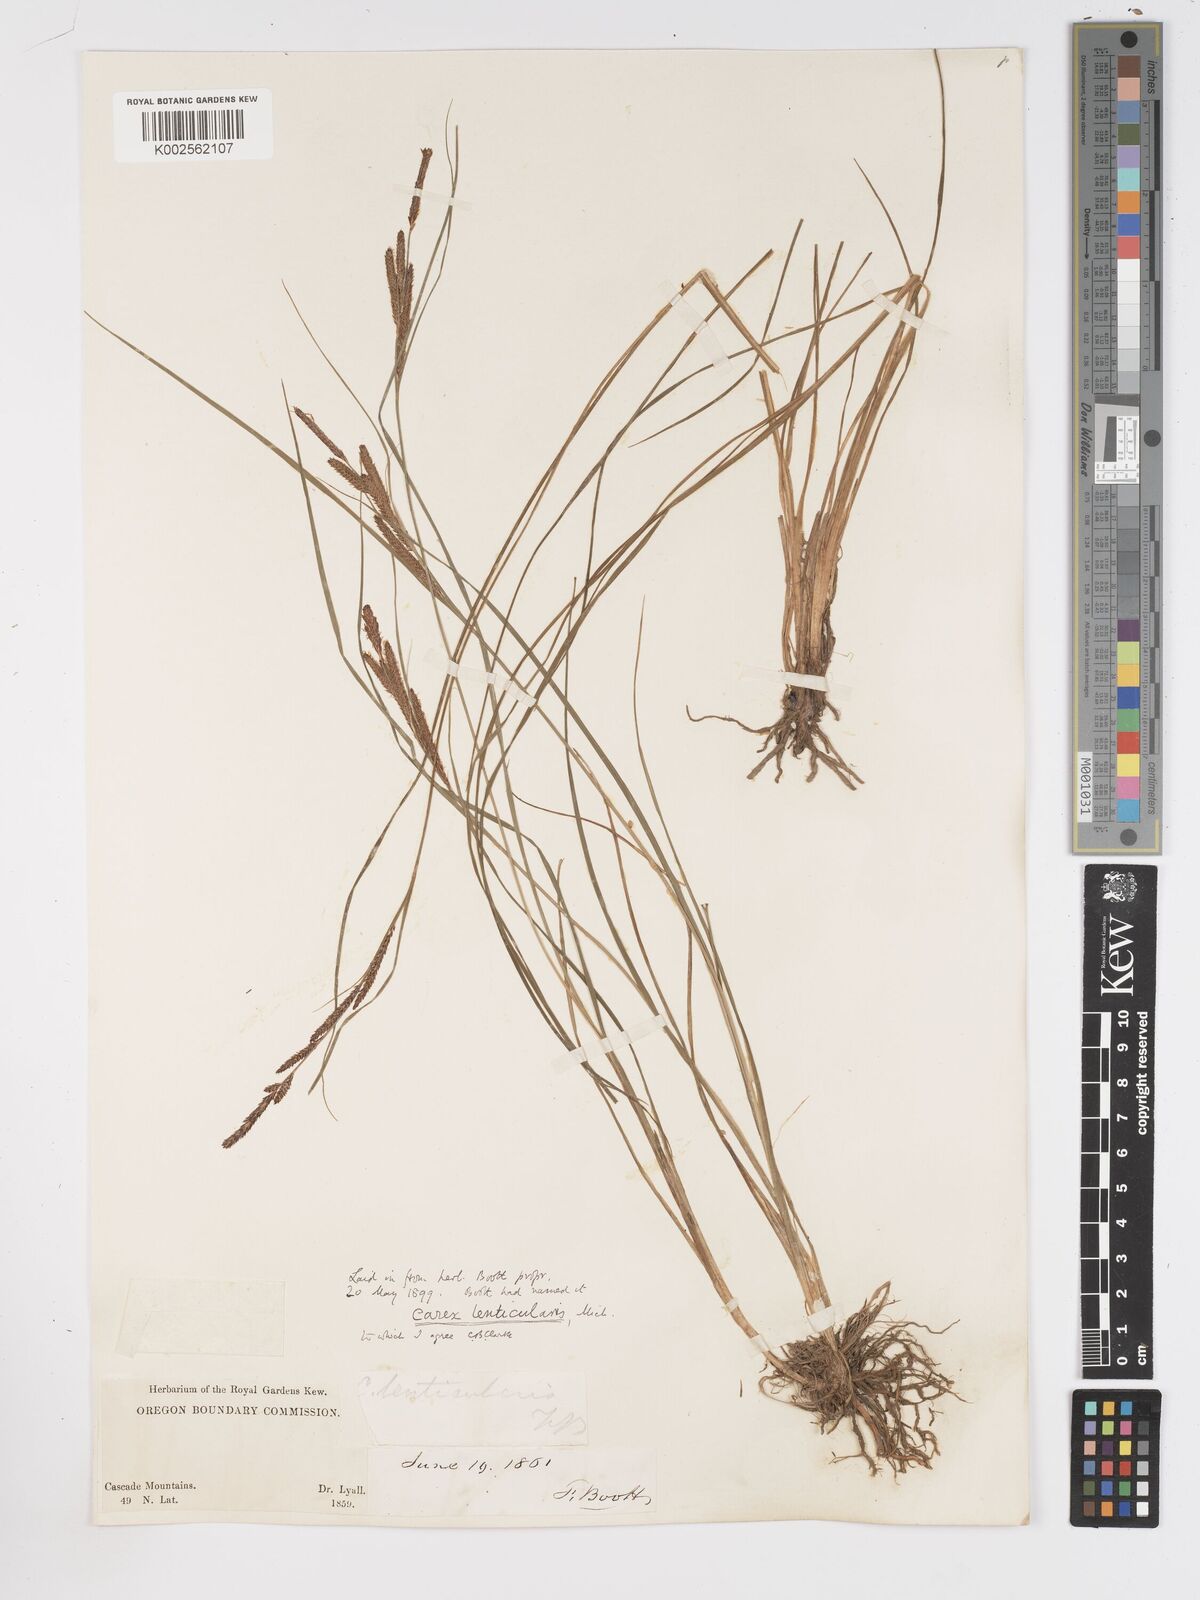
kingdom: Plantae
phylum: Tracheophyta
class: Liliopsida
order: Poales
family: Cyperaceae
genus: Carex
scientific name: Carex lenticularis
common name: Lakeshore sedge
